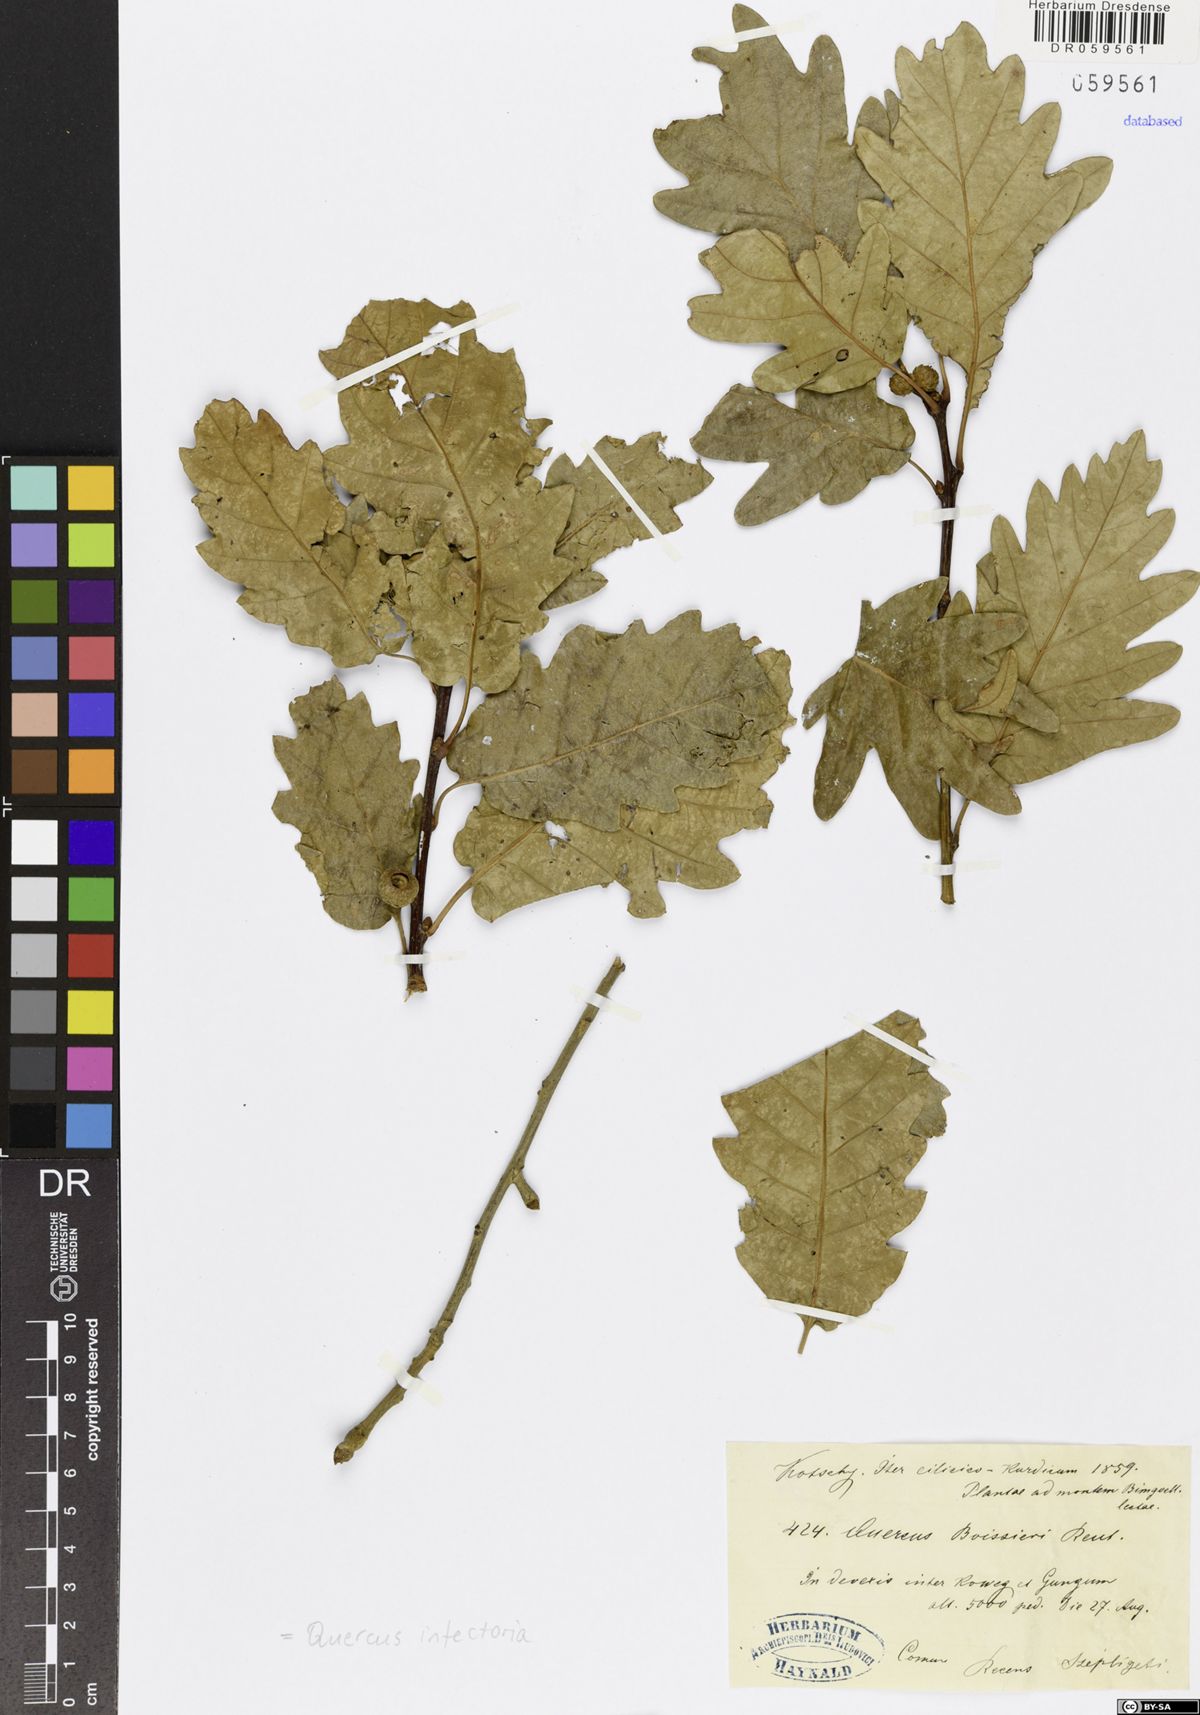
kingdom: Plantae
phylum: Tracheophyta
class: Magnoliopsida
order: Fagales
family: Fagaceae
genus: Quercus
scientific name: Quercus infectoria
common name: Aleppo oak
